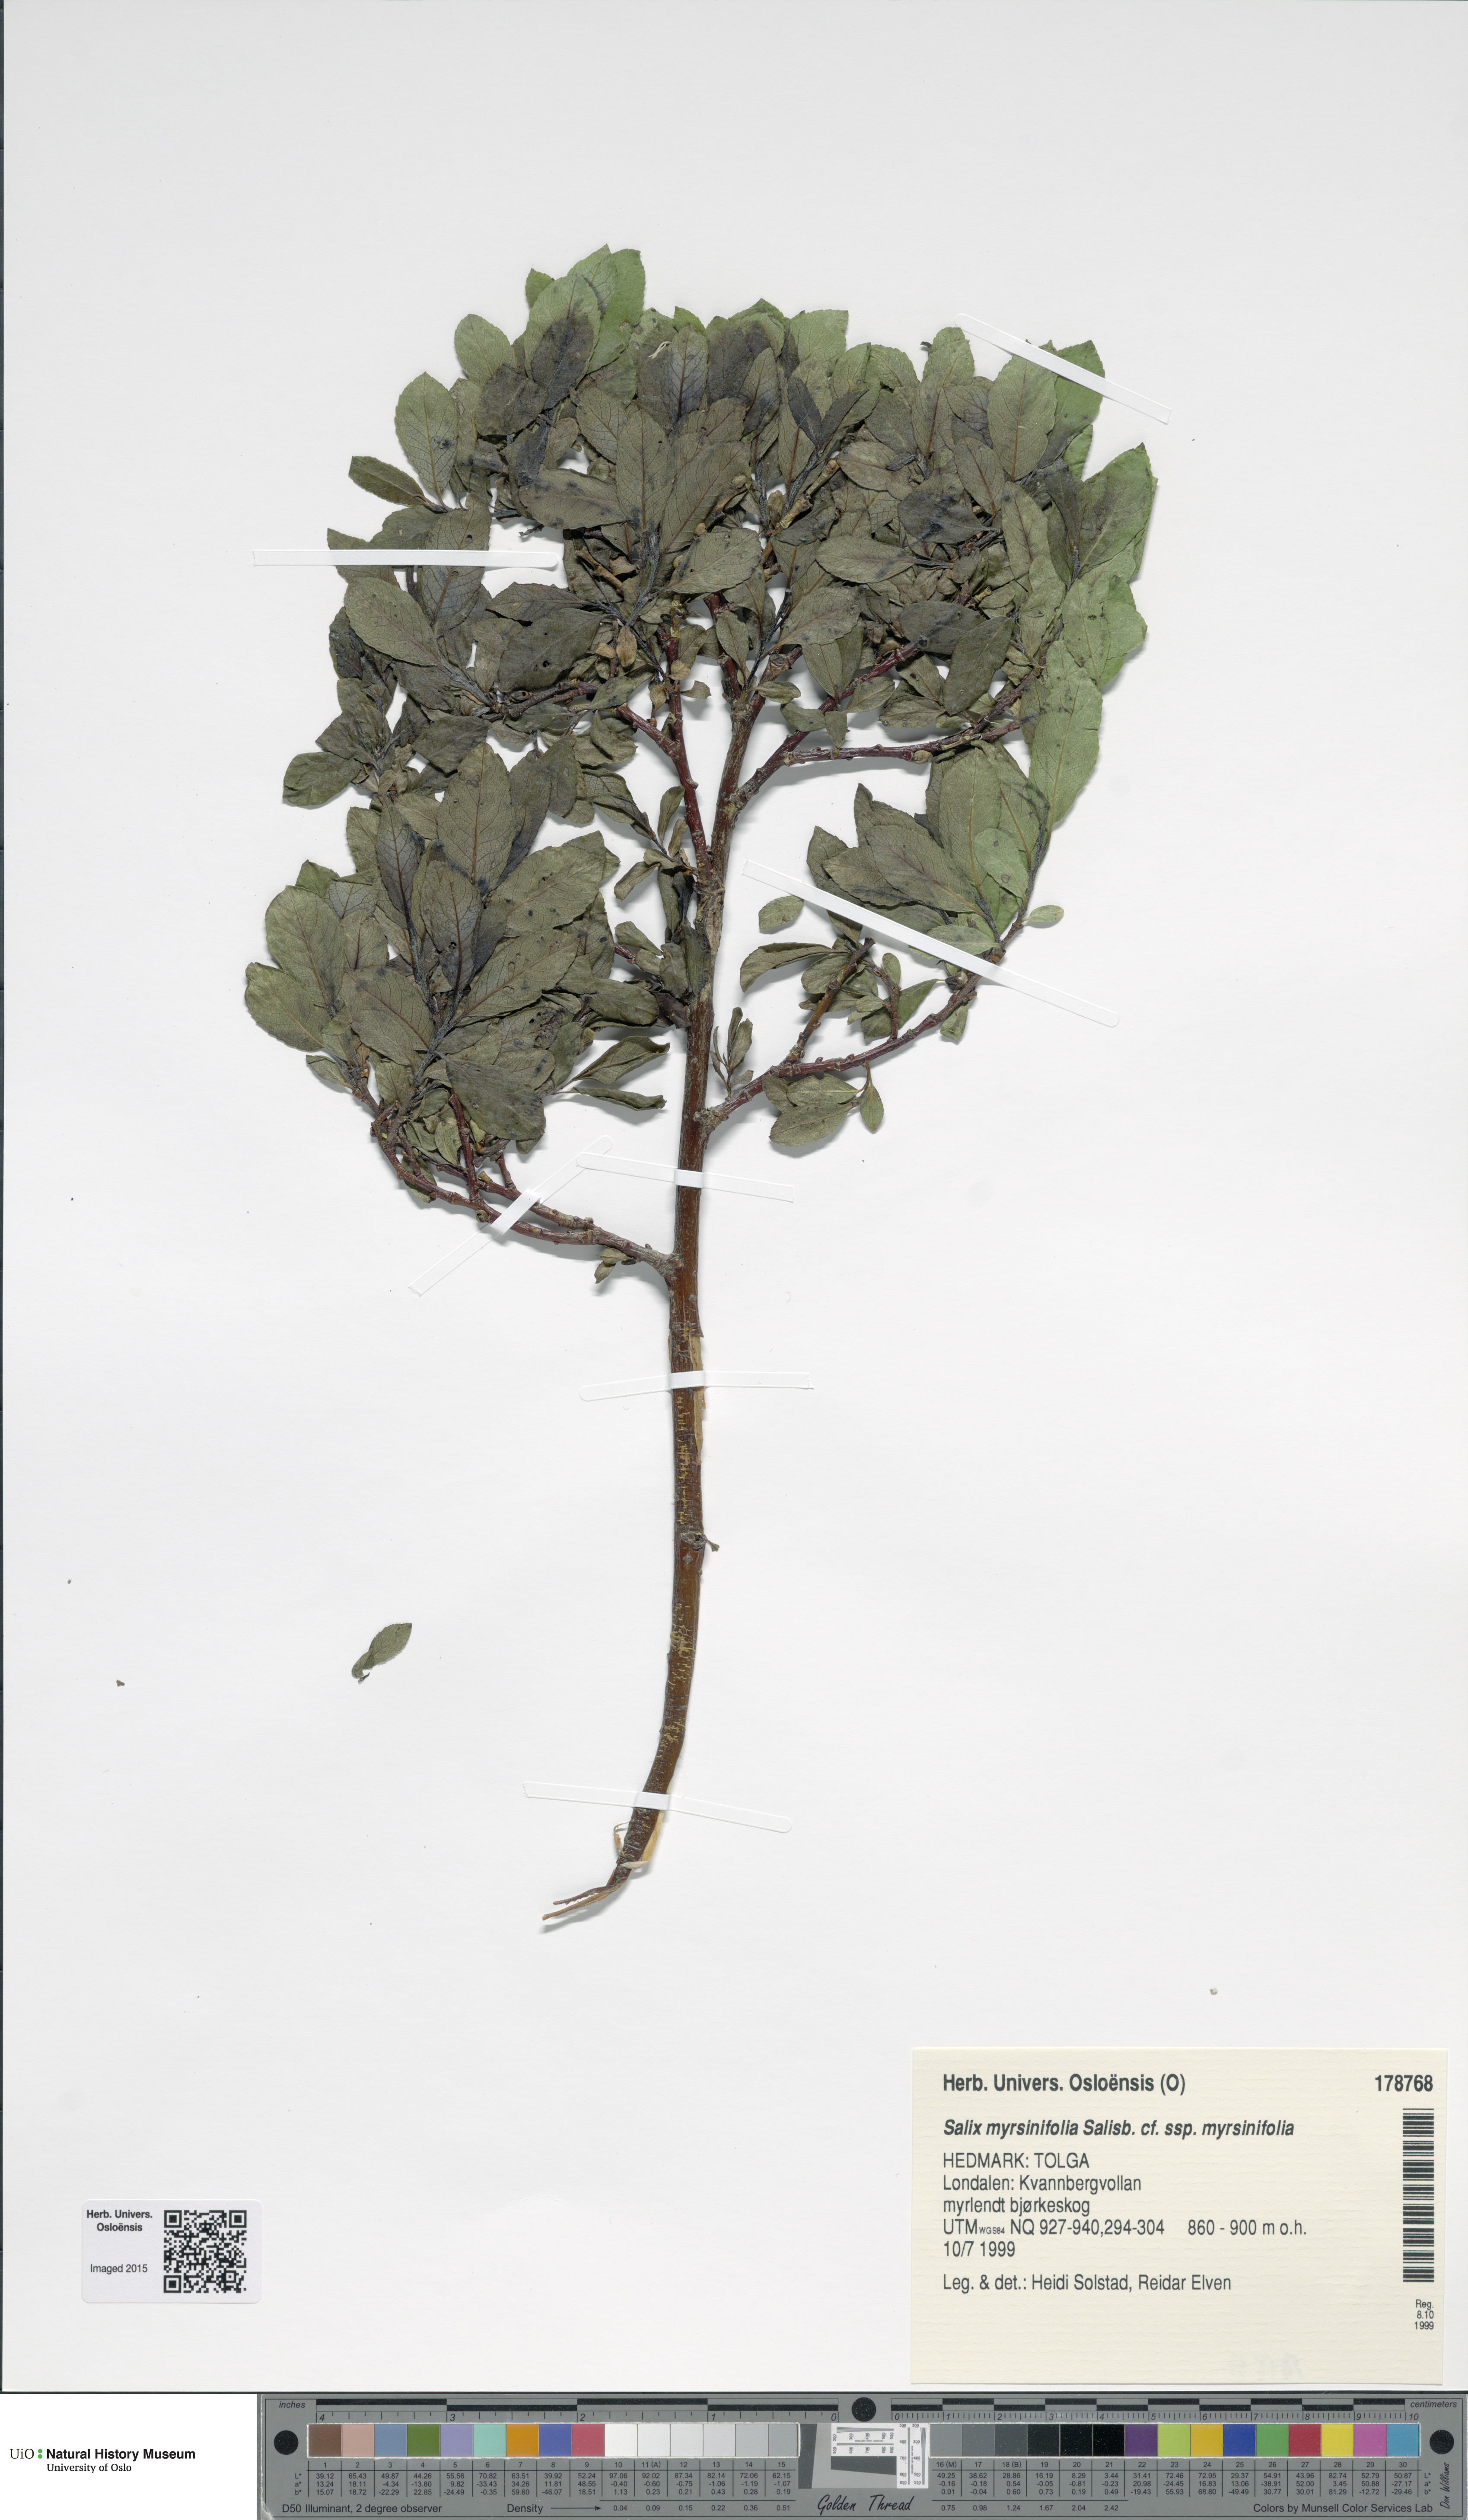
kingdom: Plantae
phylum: Tracheophyta
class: Magnoliopsida
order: Malpighiales
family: Salicaceae
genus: Salix
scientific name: Salix myrsinifolia
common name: Dark-leaved willow
